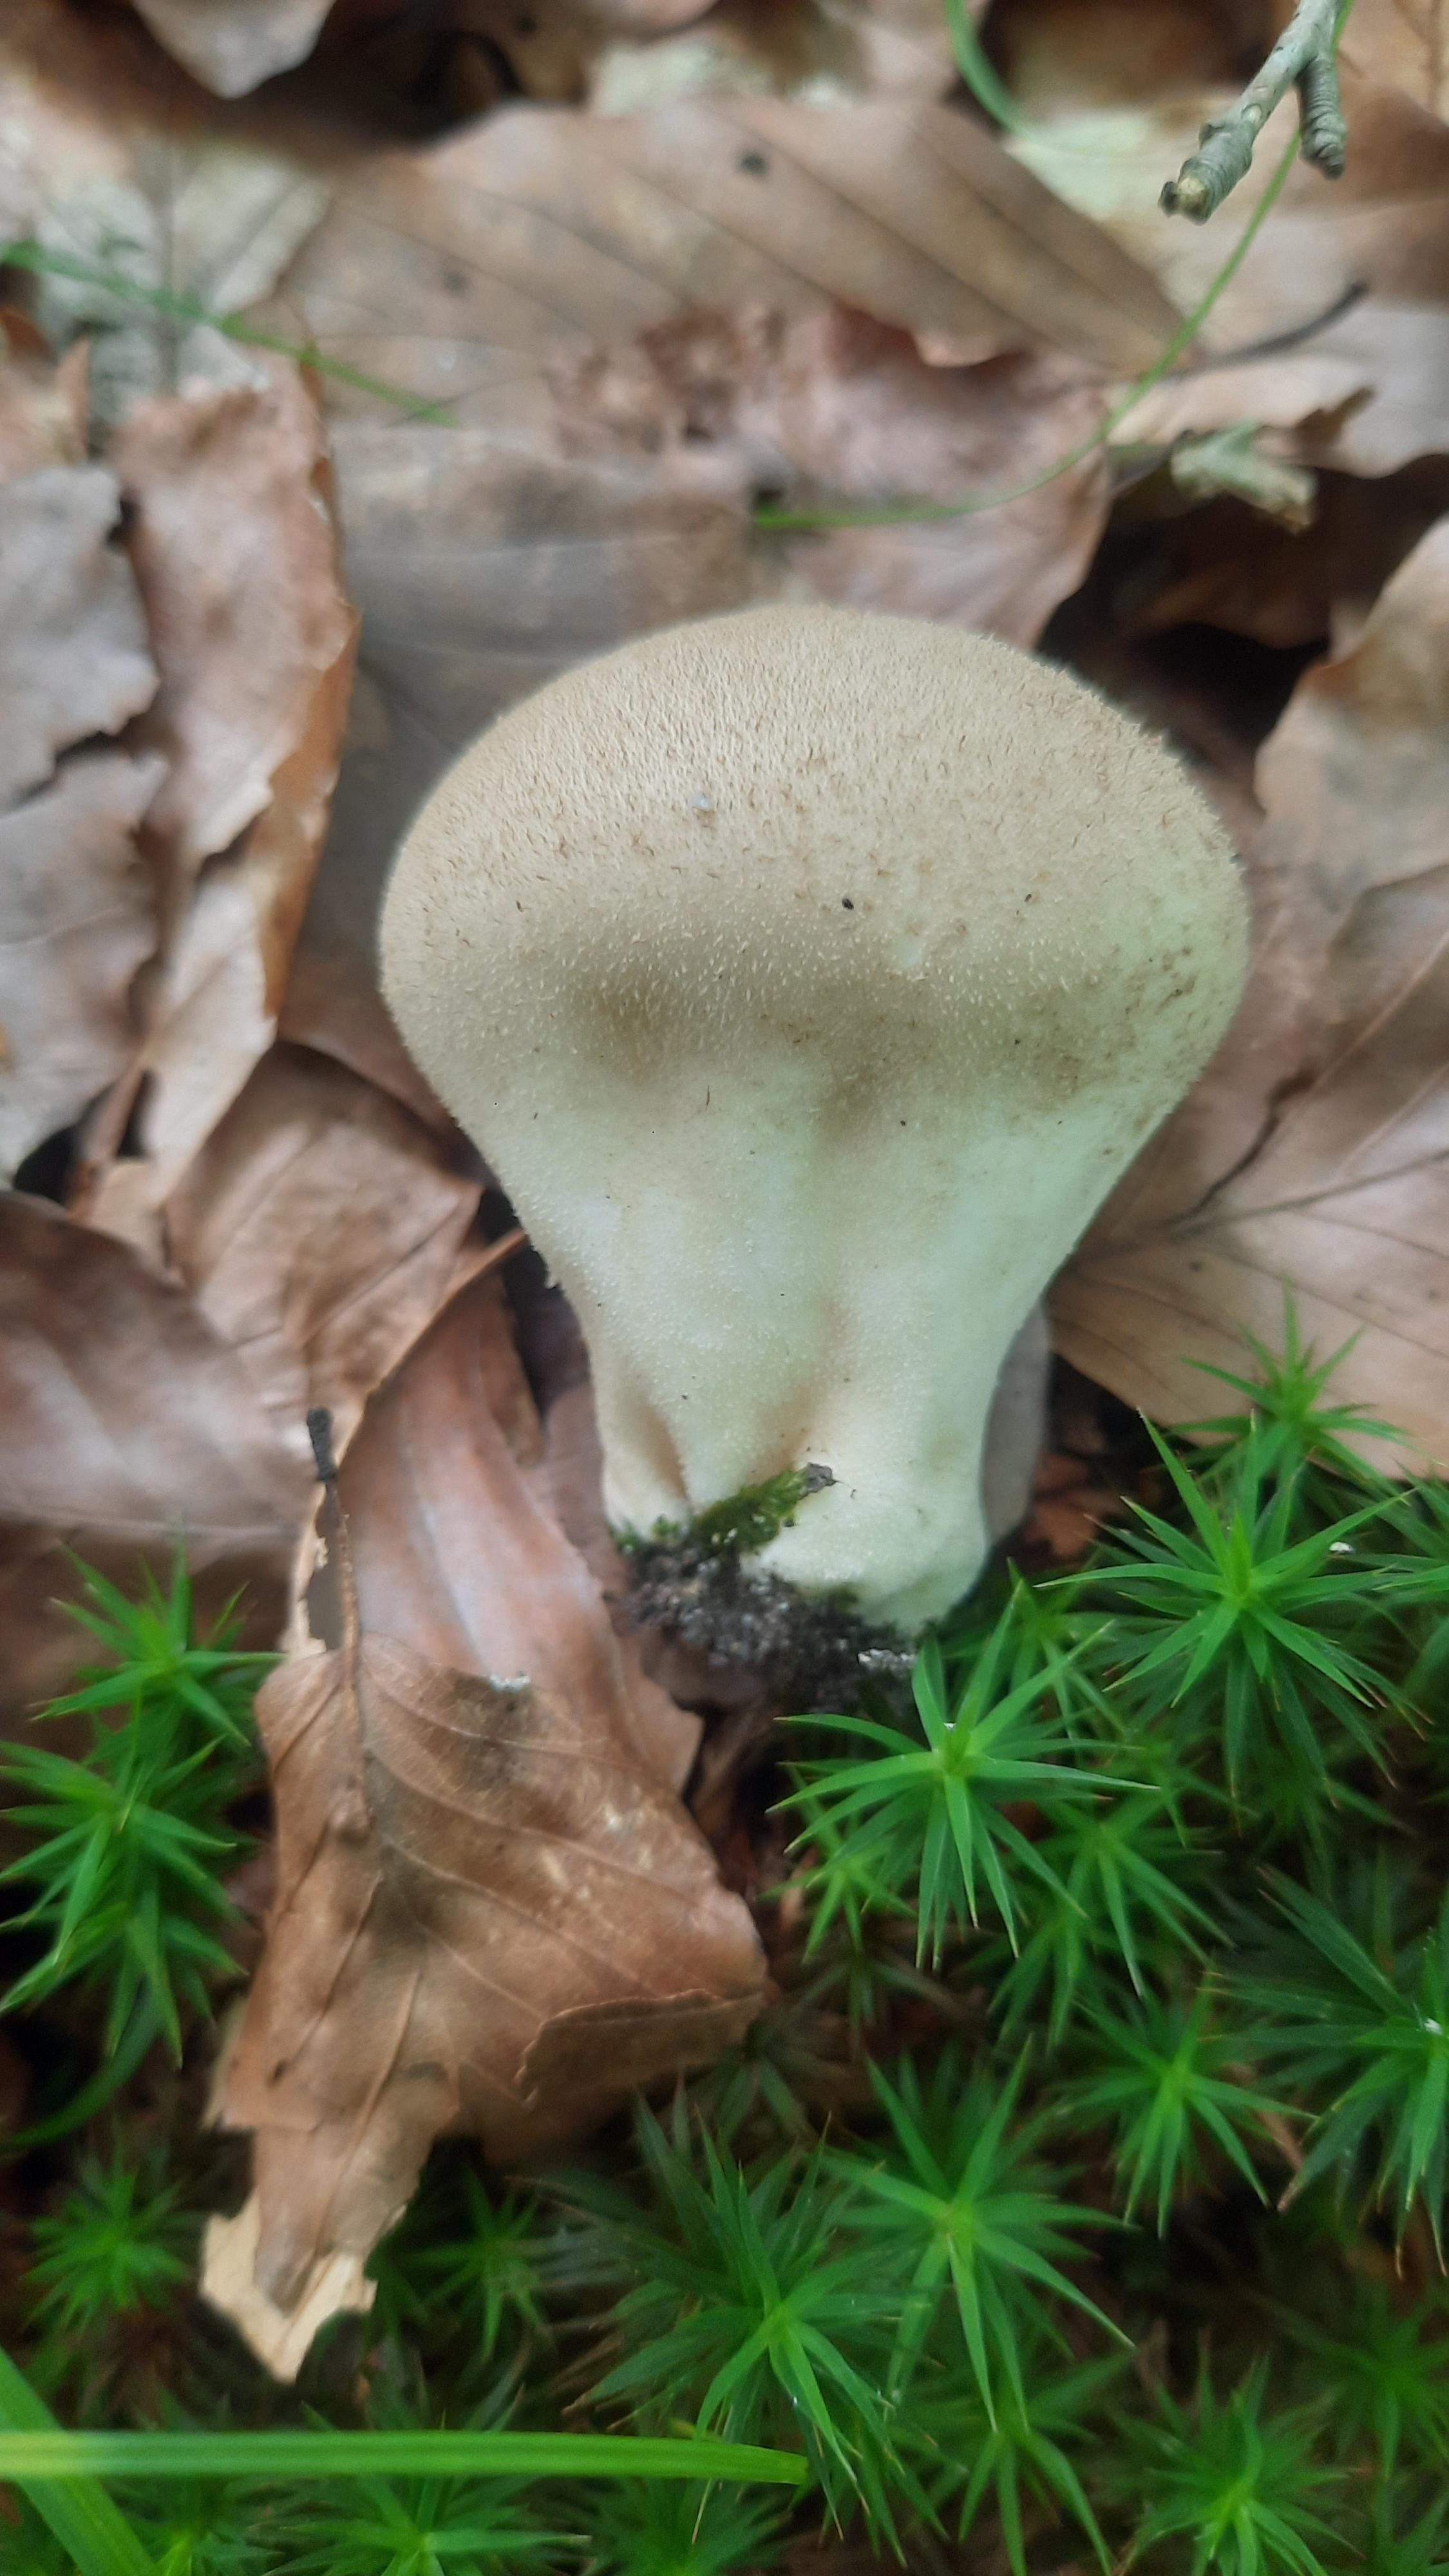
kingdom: Fungi
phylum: Basidiomycota
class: Agaricomycetes
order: Agaricales
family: Lycoperdaceae
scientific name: Lycoperdaceae
